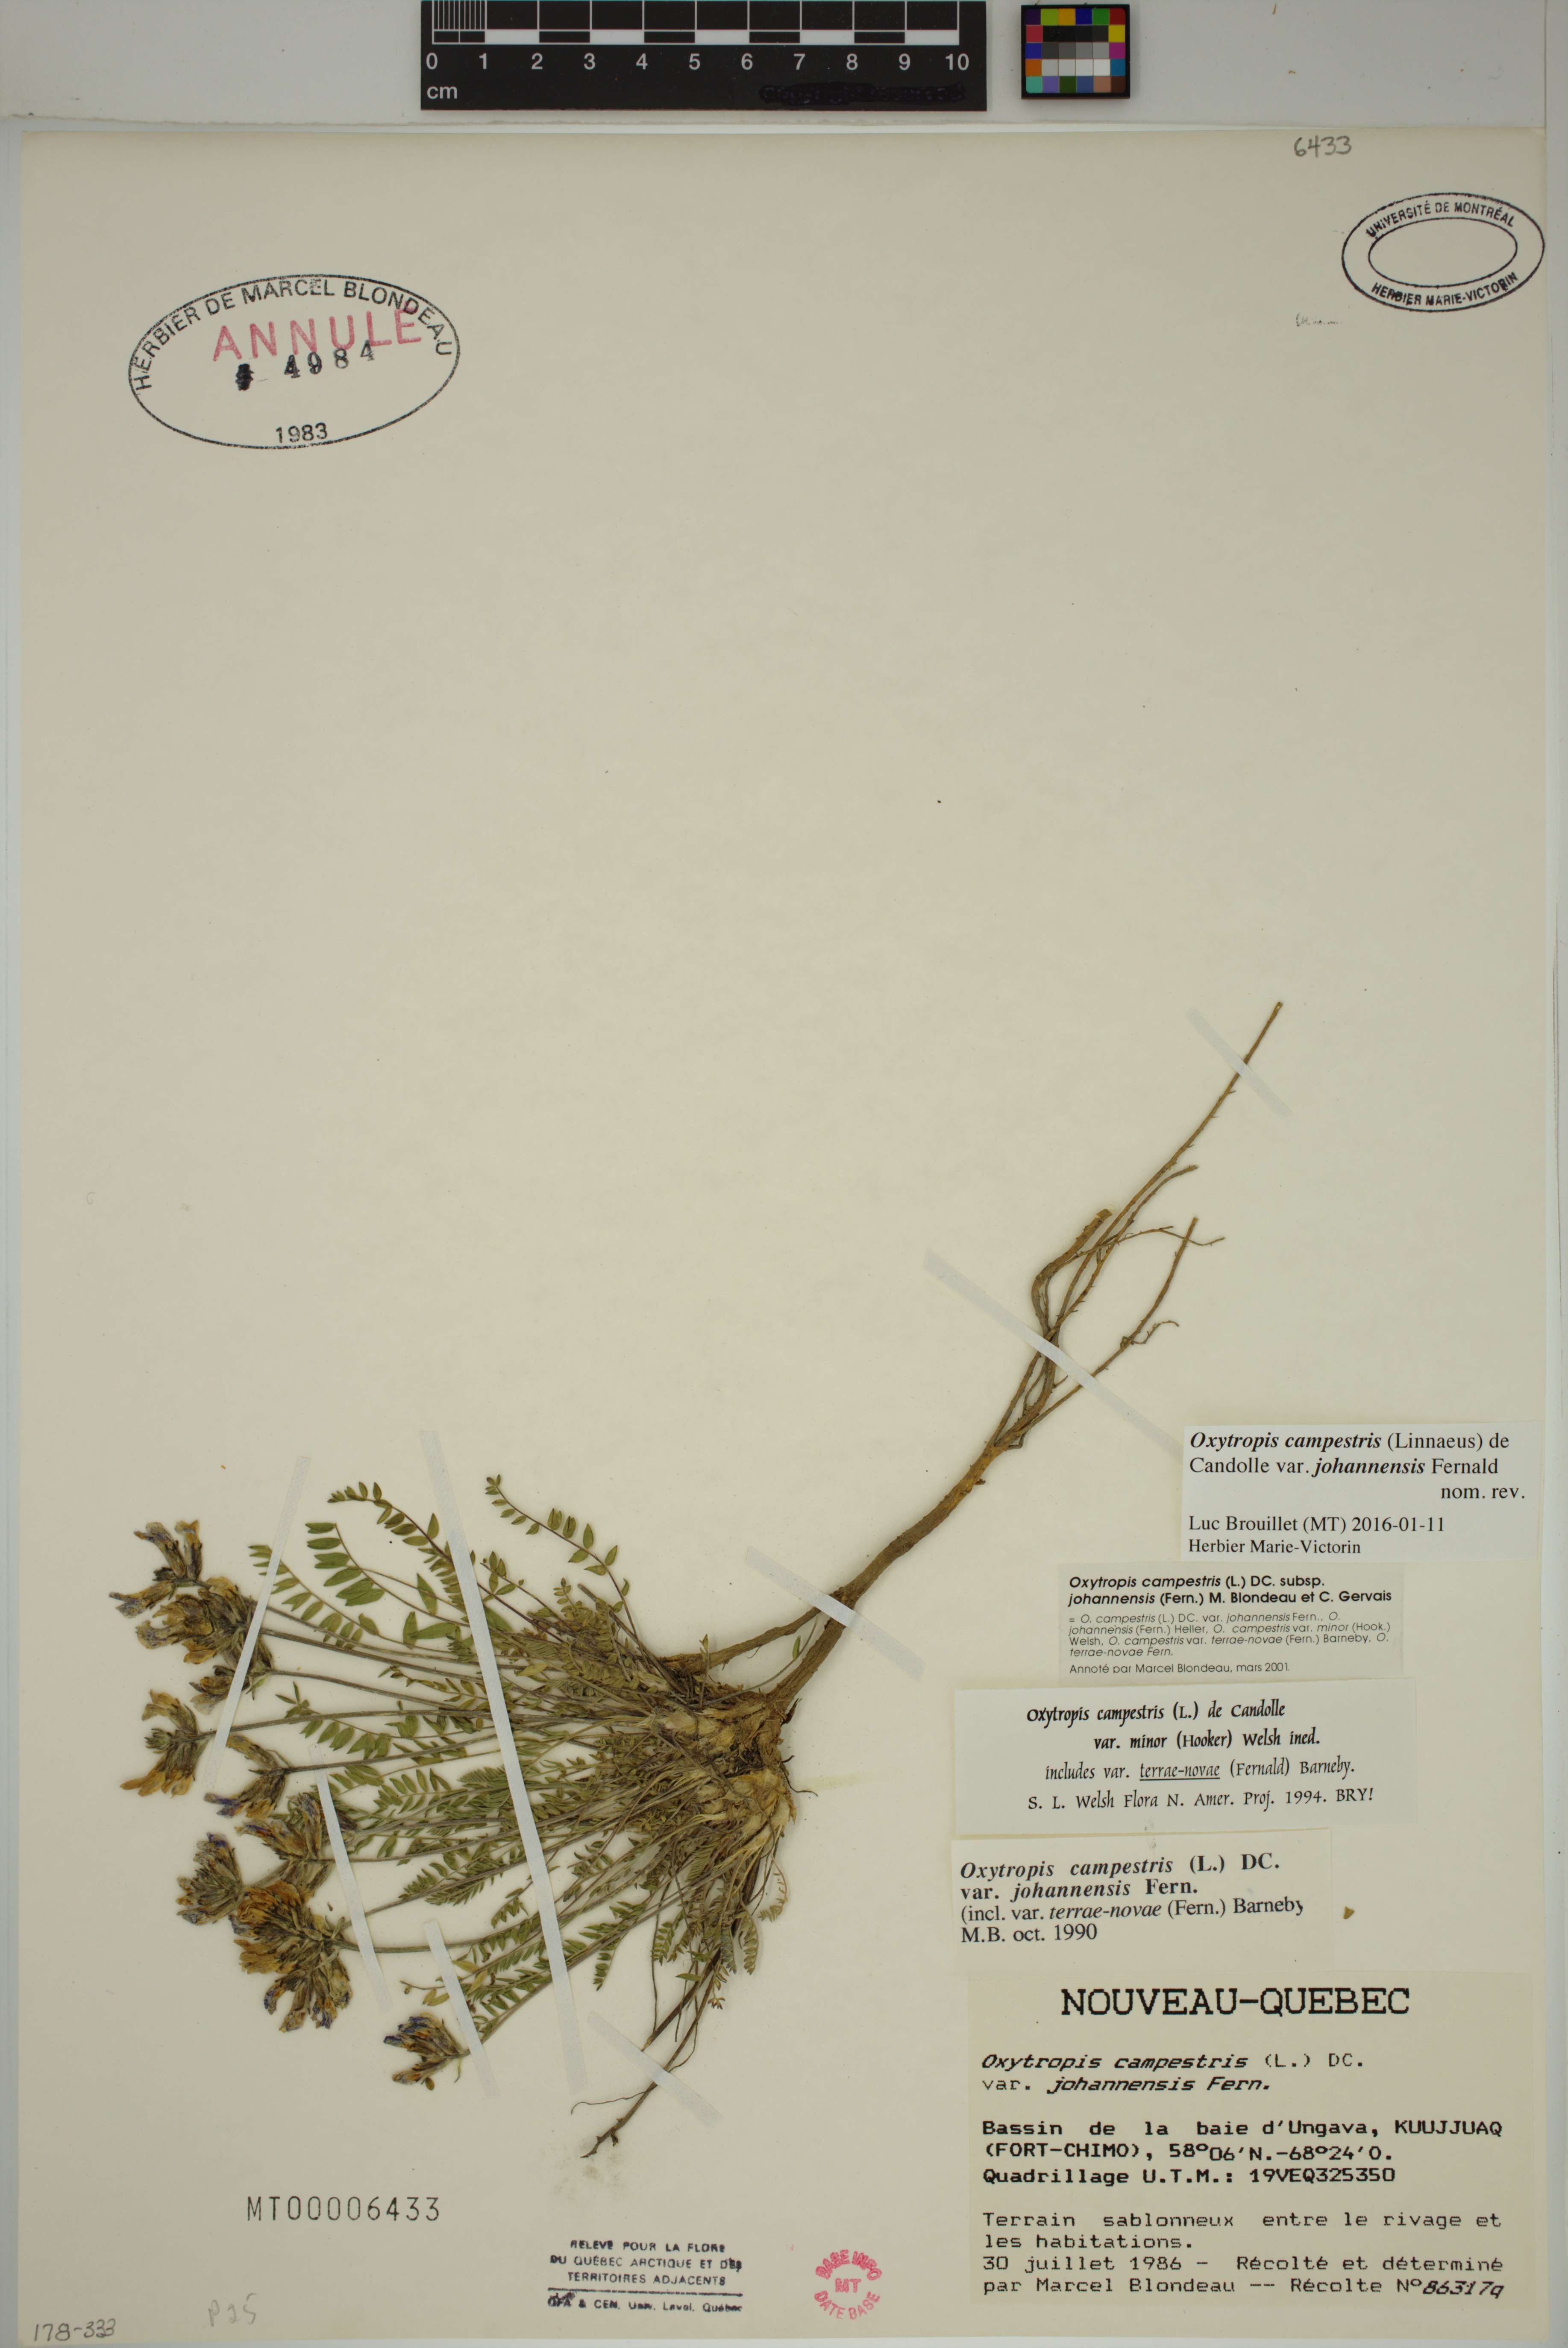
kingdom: Plantae
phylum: Tracheophyta
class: Magnoliopsida
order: Fabales
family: Fabaceae
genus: Oxytropis
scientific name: Oxytropis campestris
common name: Field locoweed
